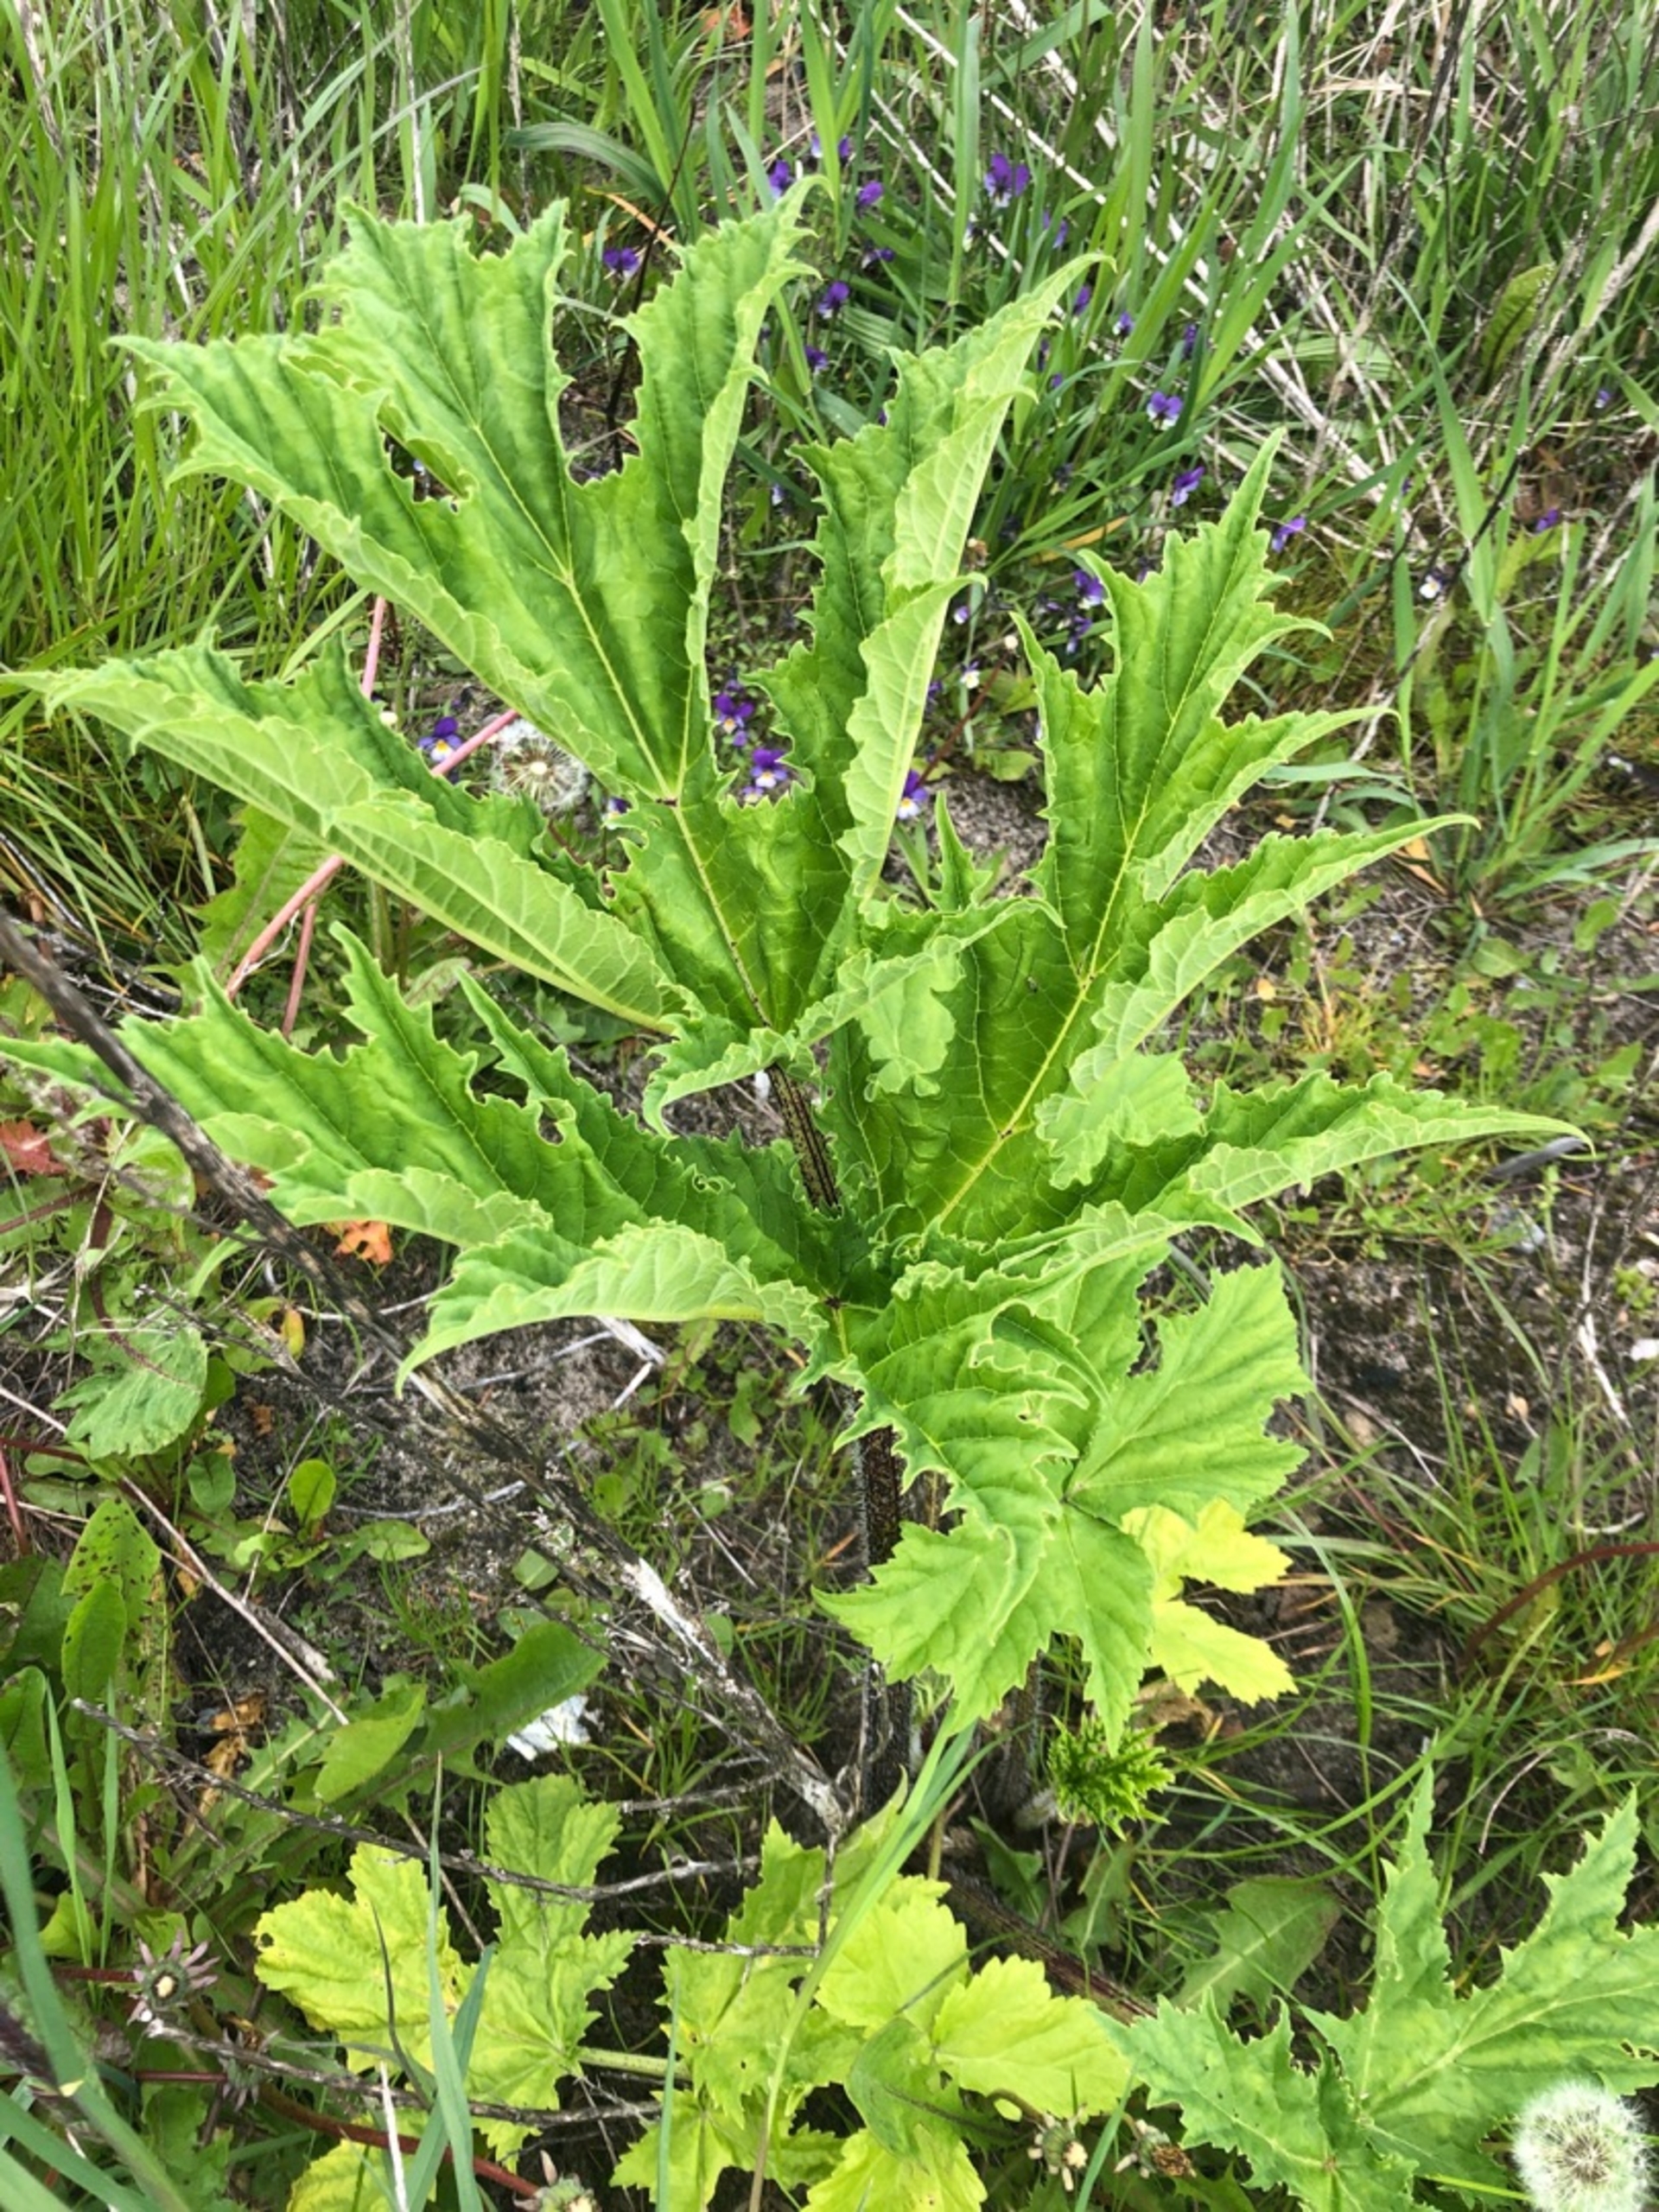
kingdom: Plantae
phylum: Tracheophyta
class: Magnoliopsida
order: Apiales
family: Apiaceae
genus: Heracleum
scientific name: Heracleum mantegazzianum
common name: Kæmpe-bjørneklo
